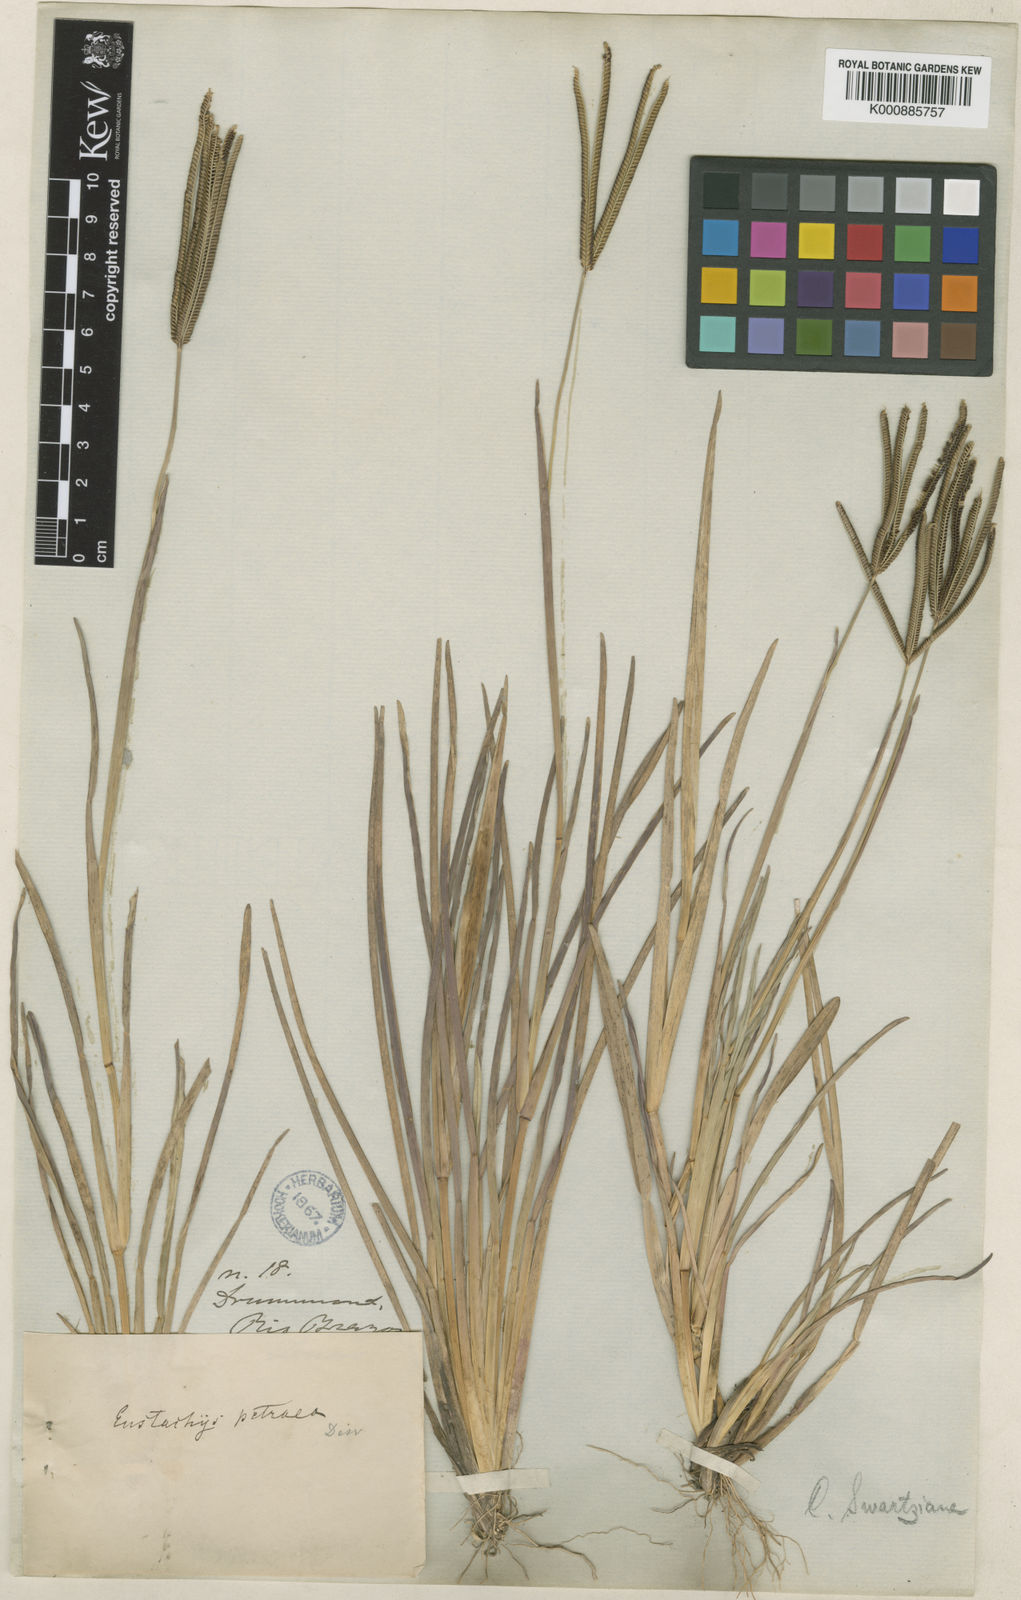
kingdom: Plantae
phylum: Tracheophyta
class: Liliopsida
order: Poales
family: Poaceae
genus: Eustachys
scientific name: Eustachys petraea
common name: Pinewoods fingergrass
